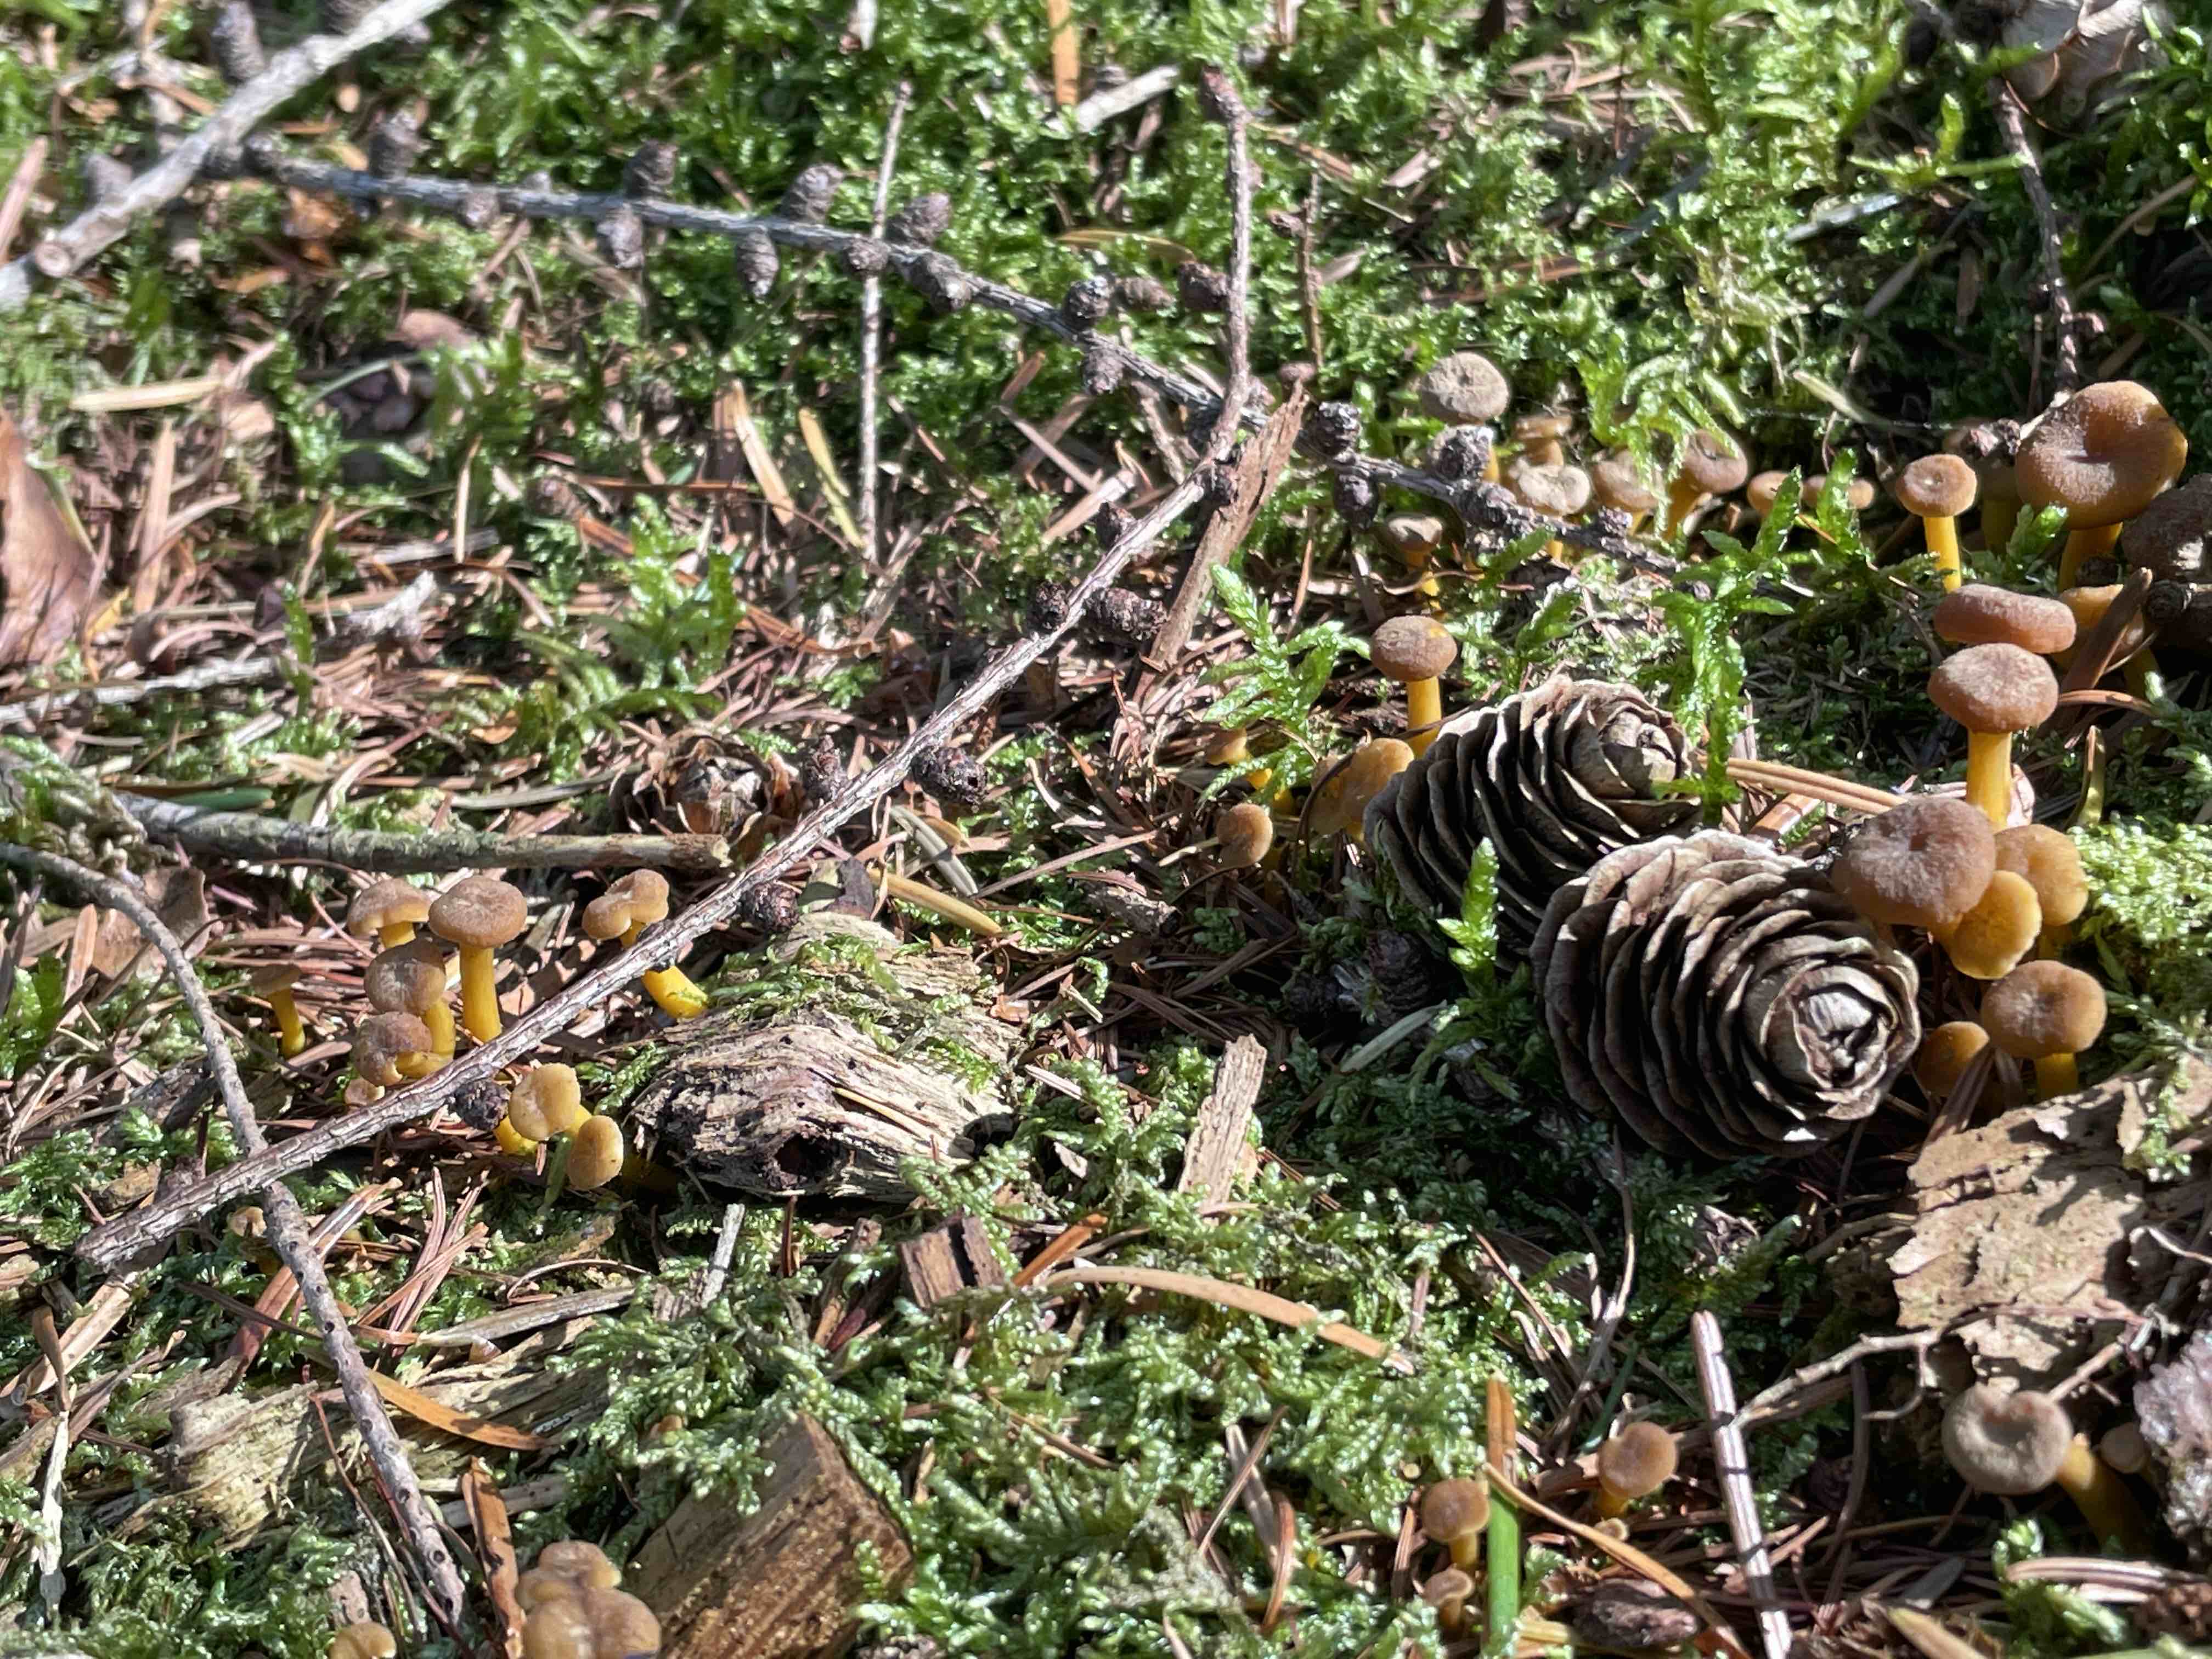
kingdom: Fungi
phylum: Basidiomycota
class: Agaricomycetes
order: Cantharellales
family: Hydnaceae
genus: Craterellus
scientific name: Craterellus tubaeformis
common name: tragt-kantarel
